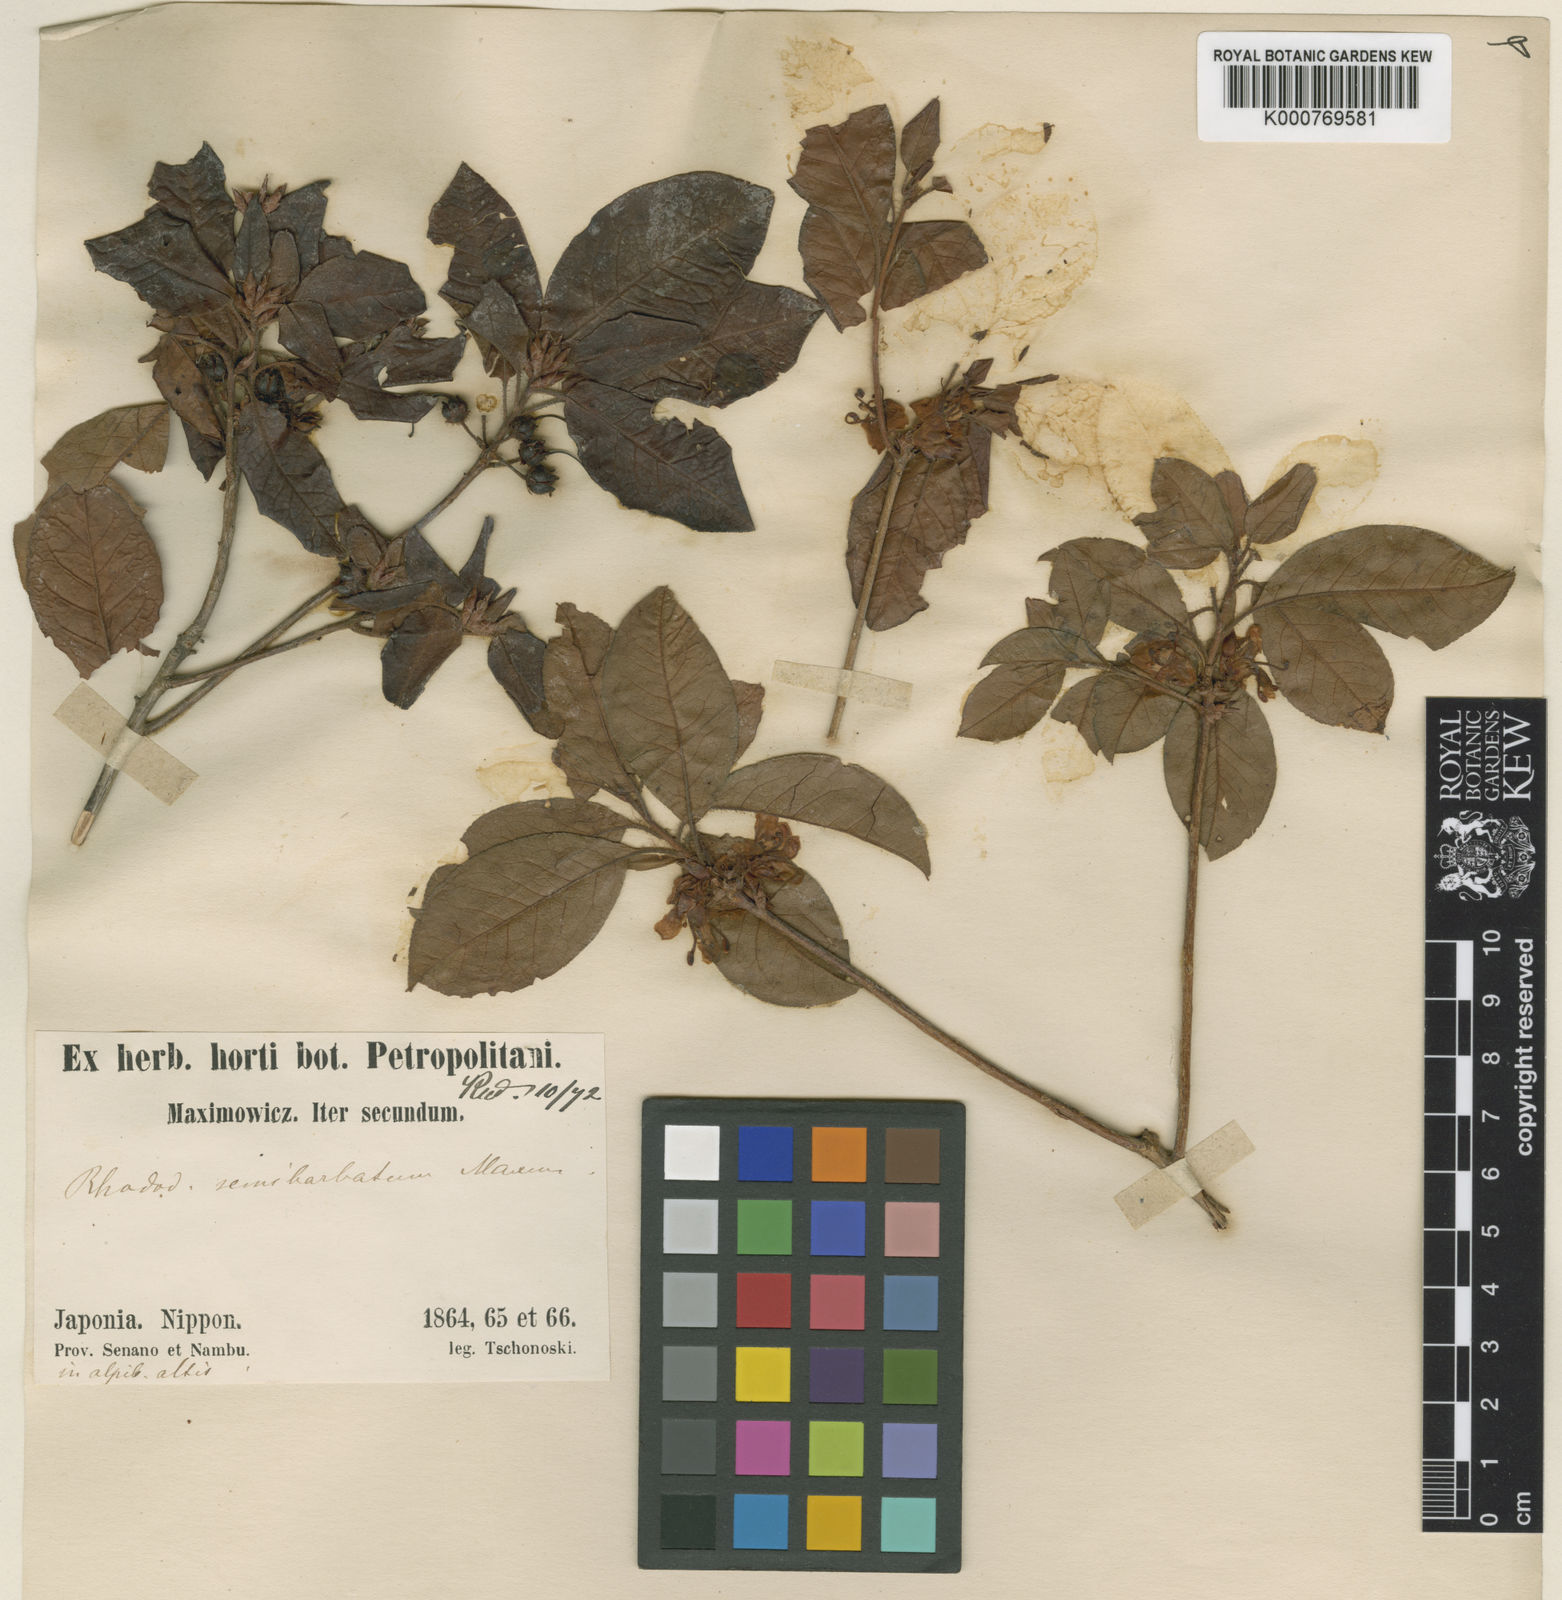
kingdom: Plantae
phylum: Tracheophyta
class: Magnoliopsida
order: Ericales
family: Ericaceae
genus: Rhododendron
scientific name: Rhododendron semibarbatum
